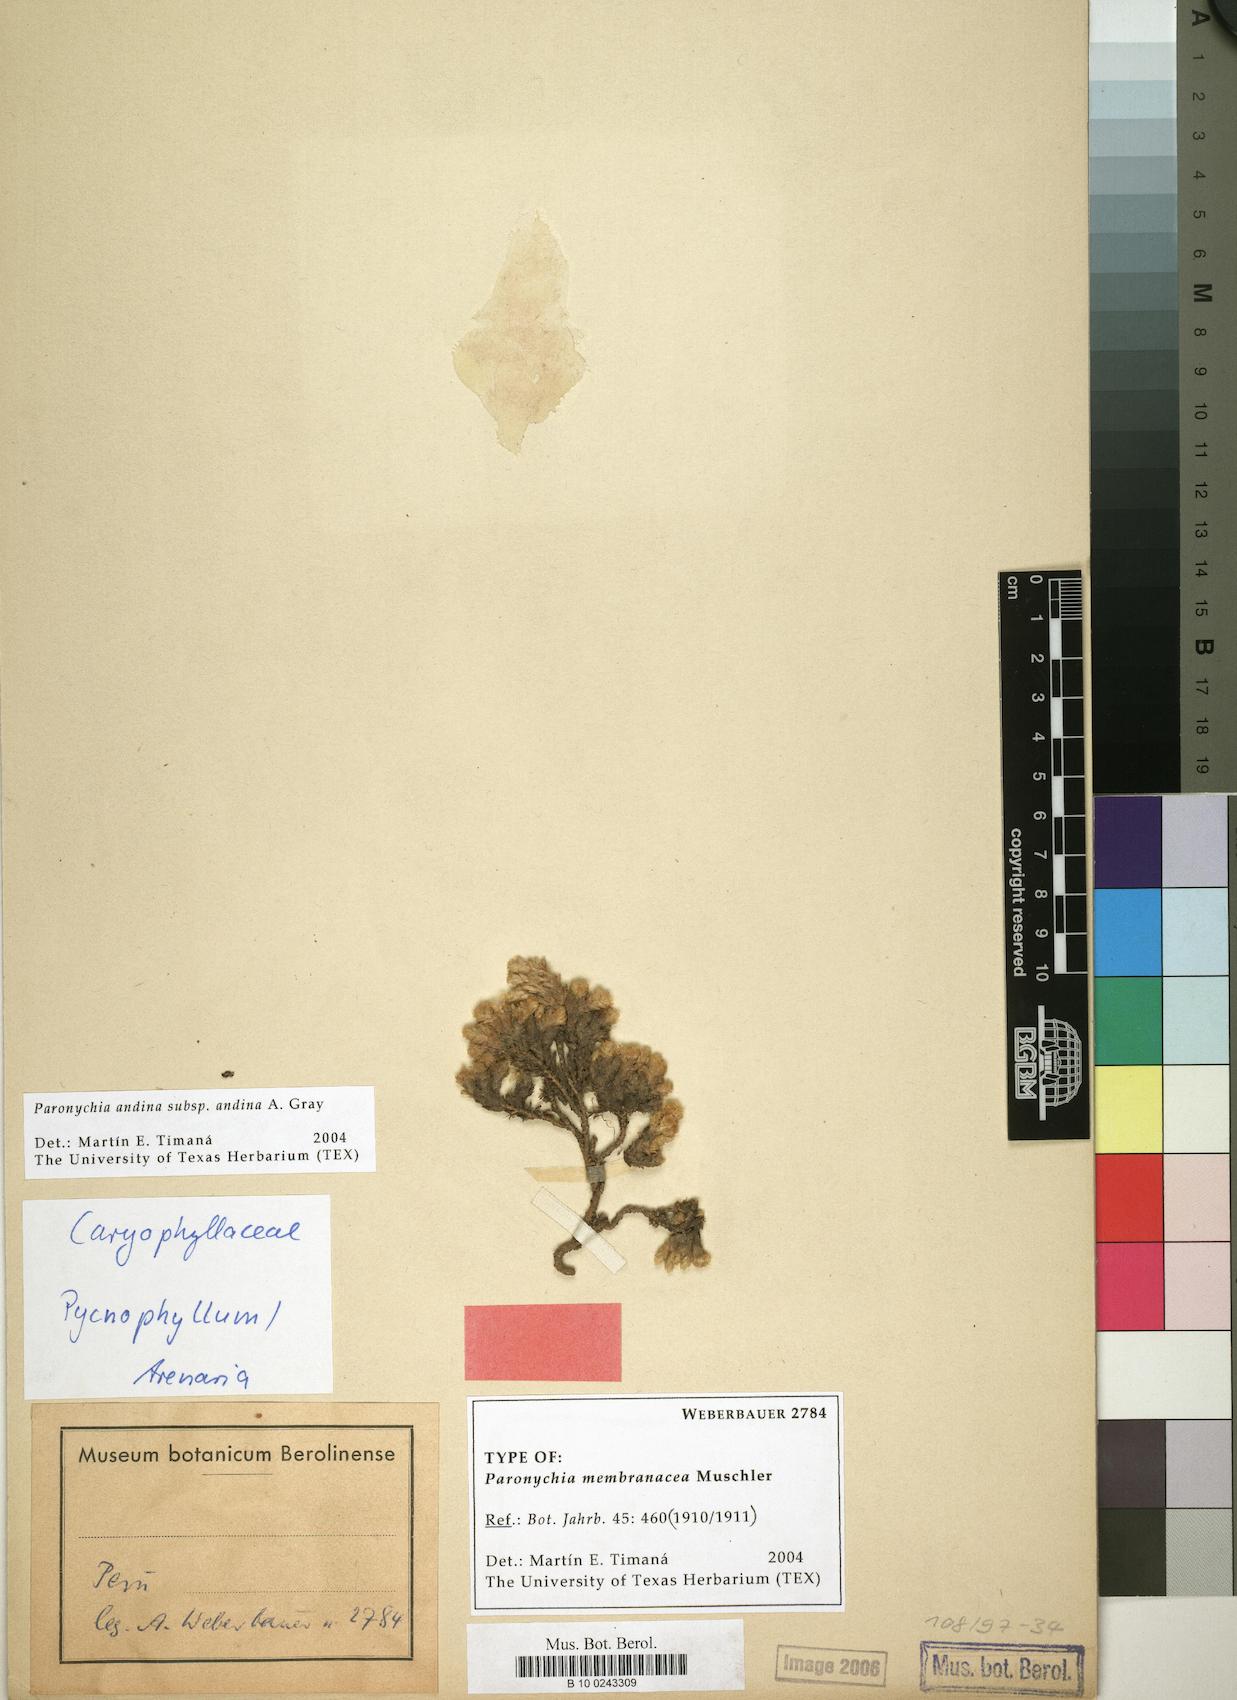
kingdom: Plantae
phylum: Tracheophyta
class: Magnoliopsida
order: Caryophyllales
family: Caryophyllaceae
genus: Paronychia
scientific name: Paronychia andina
